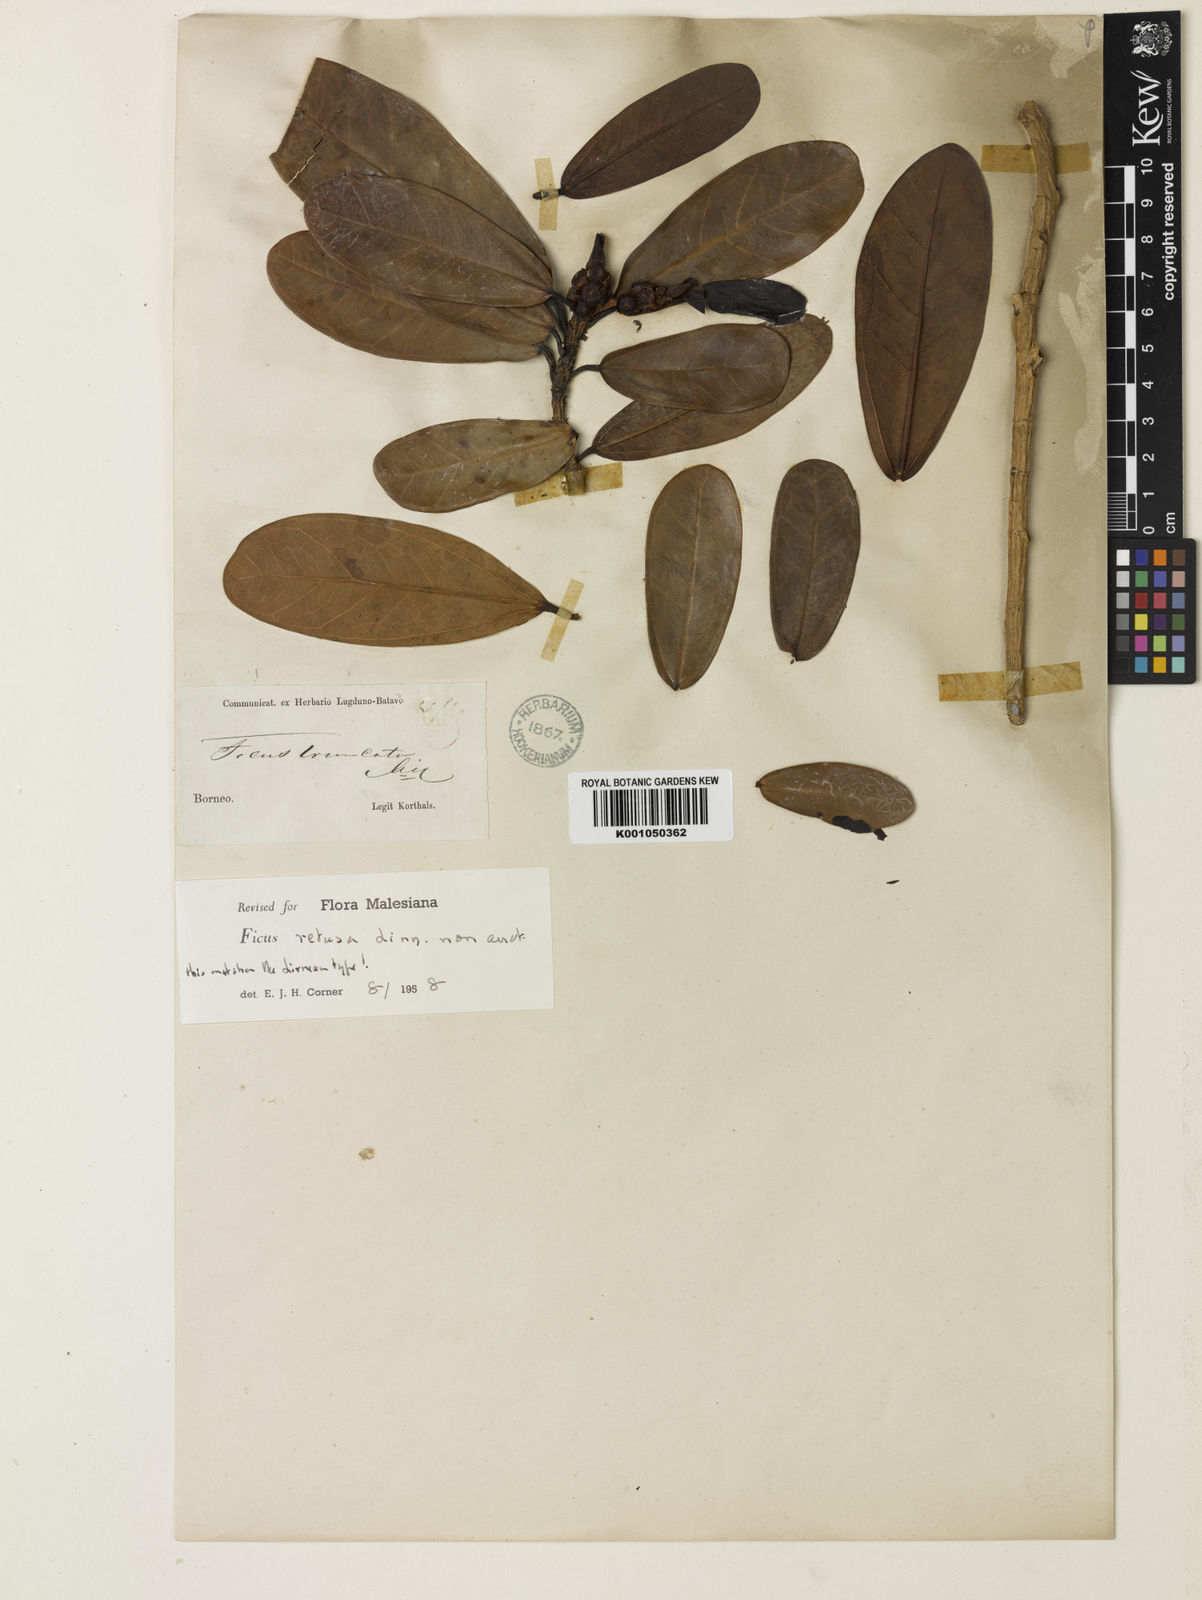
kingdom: Plantae
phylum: Tracheophyta
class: Magnoliopsida
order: Rosales
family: Moraceae
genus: Ficus
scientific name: Ficus retusa
